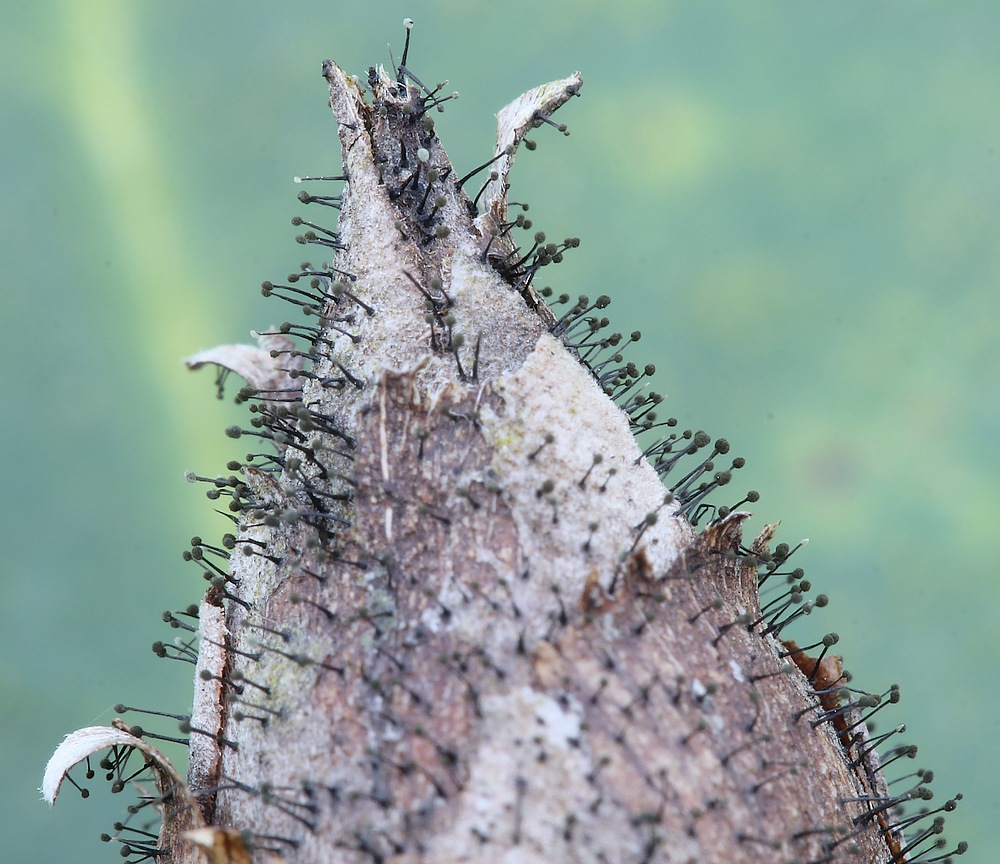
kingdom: Fungi
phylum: Ascomycota
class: Dothideomycetes
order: Pleosporales
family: Melanommataceae
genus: Seifertia
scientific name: Seifertia azaleae
